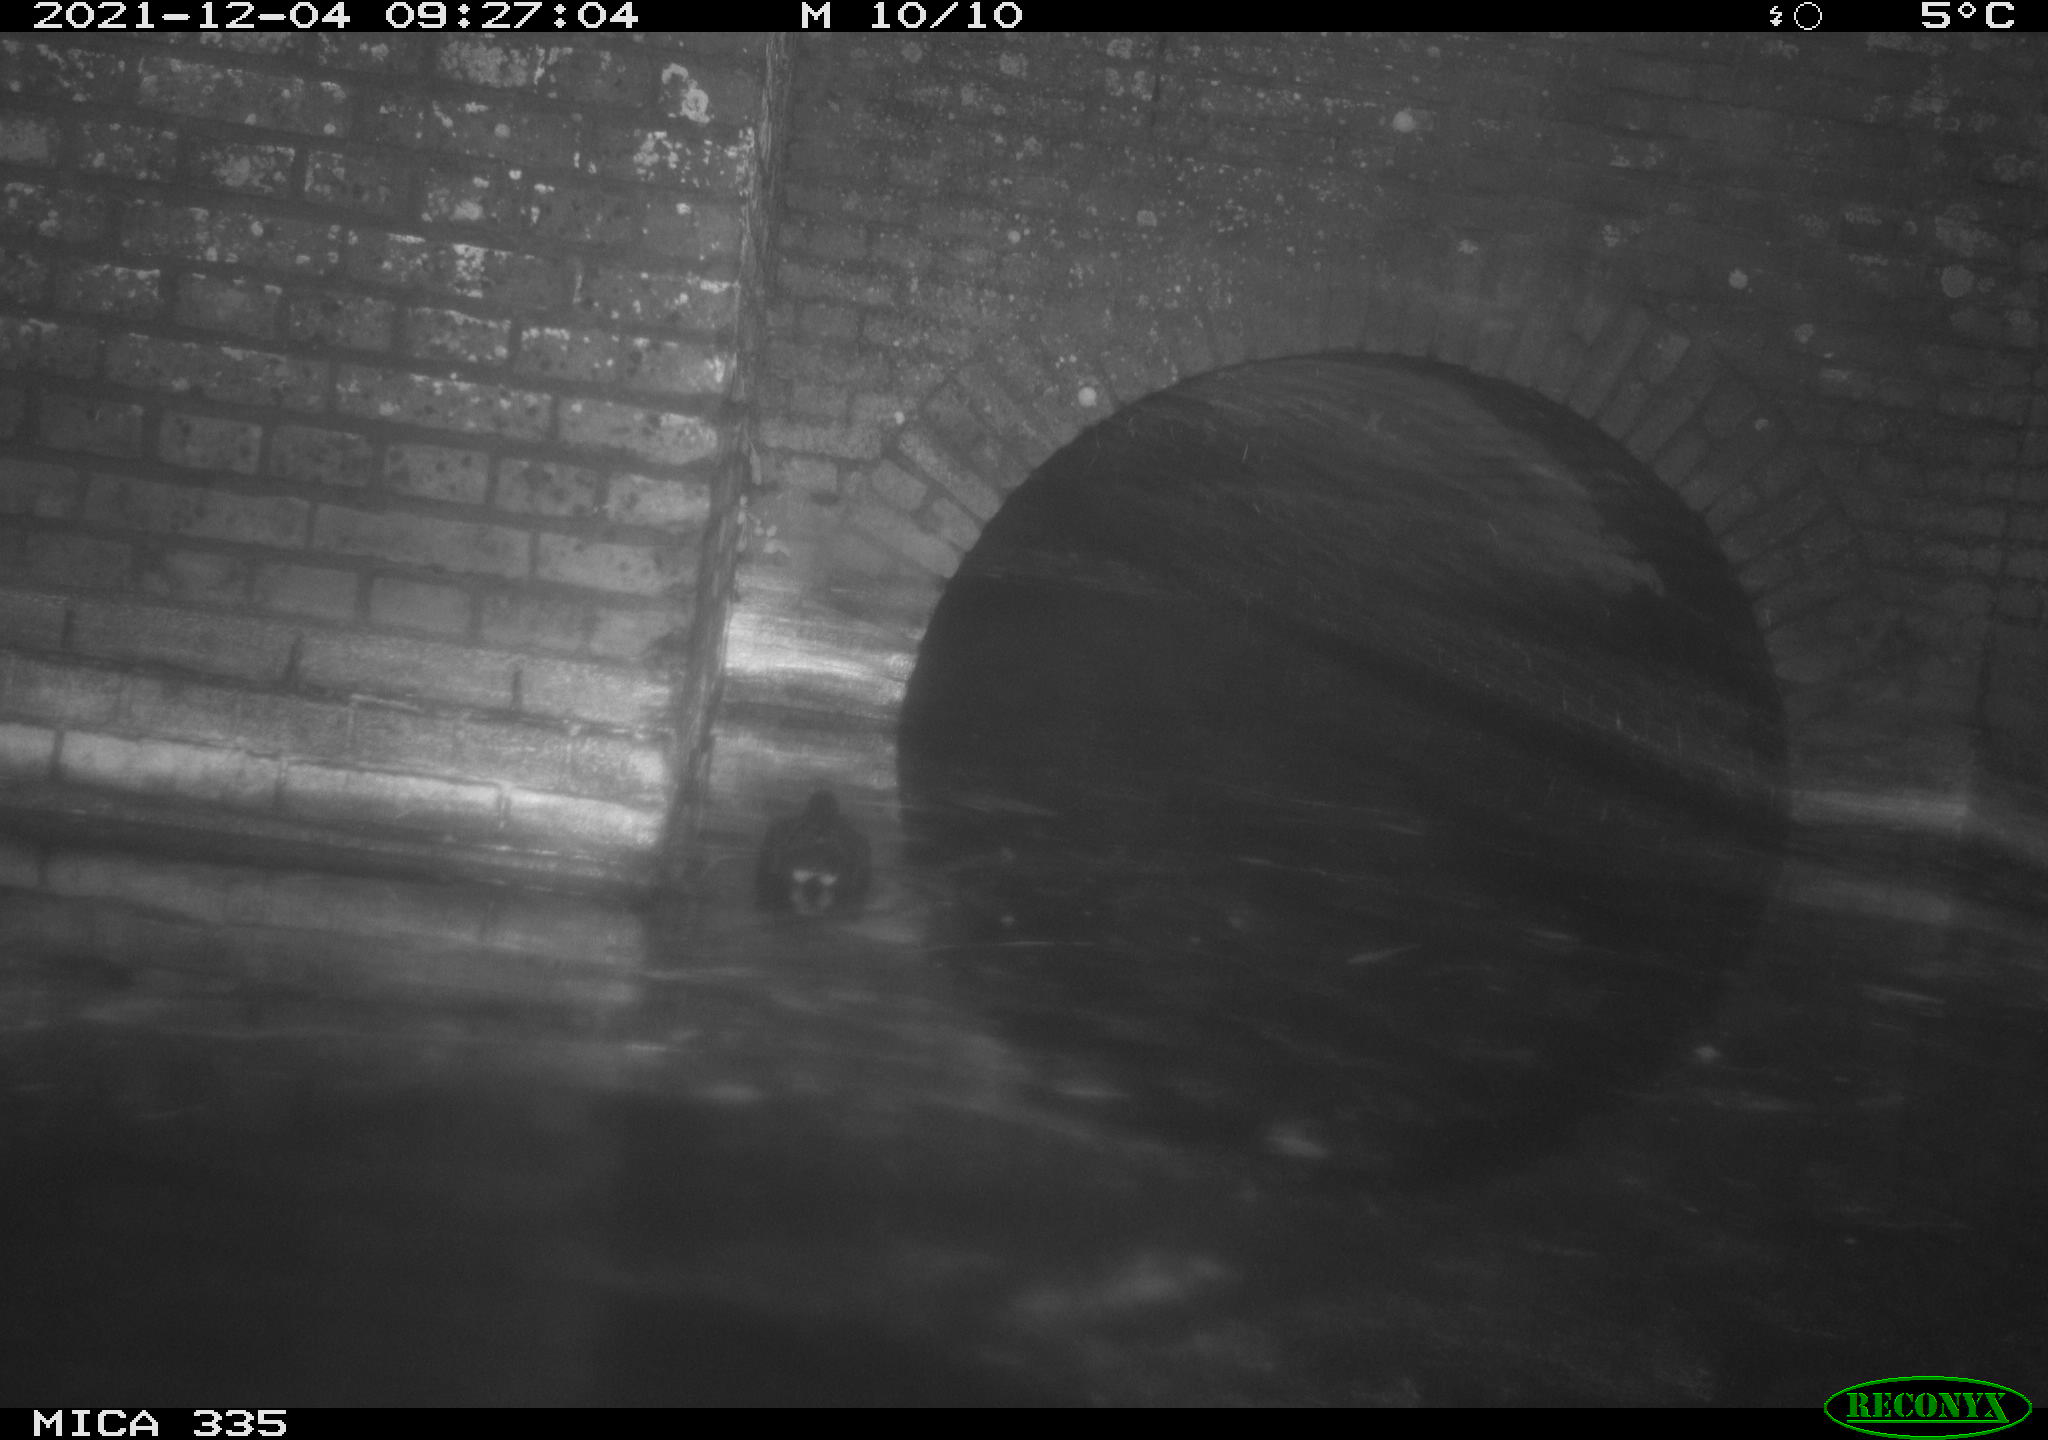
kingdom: Animalia
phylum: Chordata
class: Aves
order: Gruiformes
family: Rallidae
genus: Gallinula
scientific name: Gallinula chloropus
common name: Common moorhen
